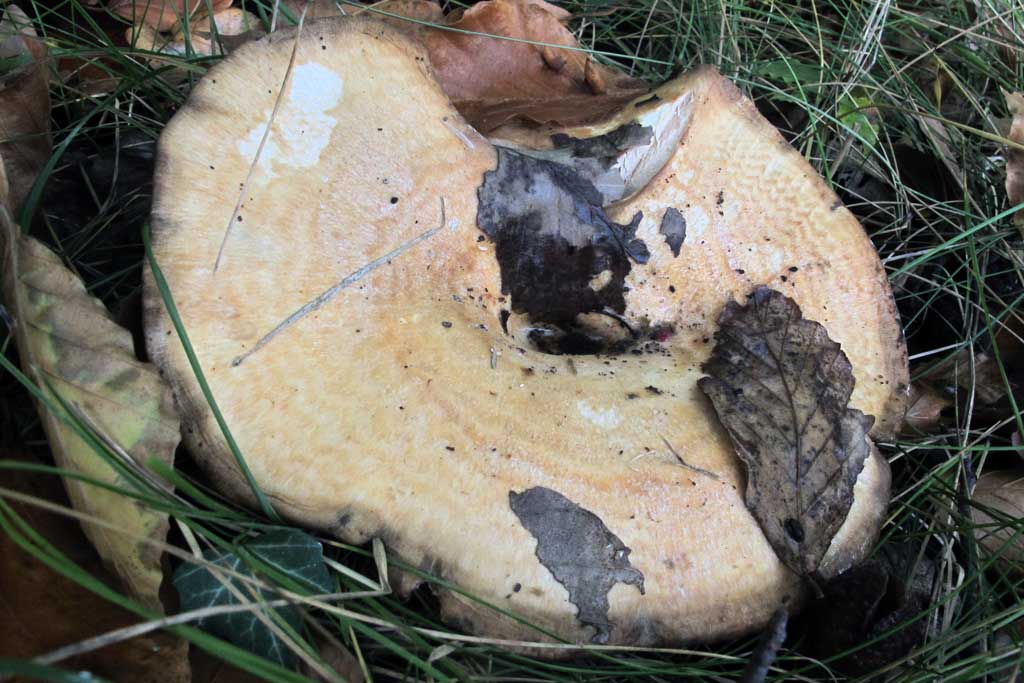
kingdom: Fungi
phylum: Basidiomycota
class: Agaricomycetes
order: Russulales
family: Russulaceae
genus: Lactarius
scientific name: Lactarius zonarius
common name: zoneret mælkehat
